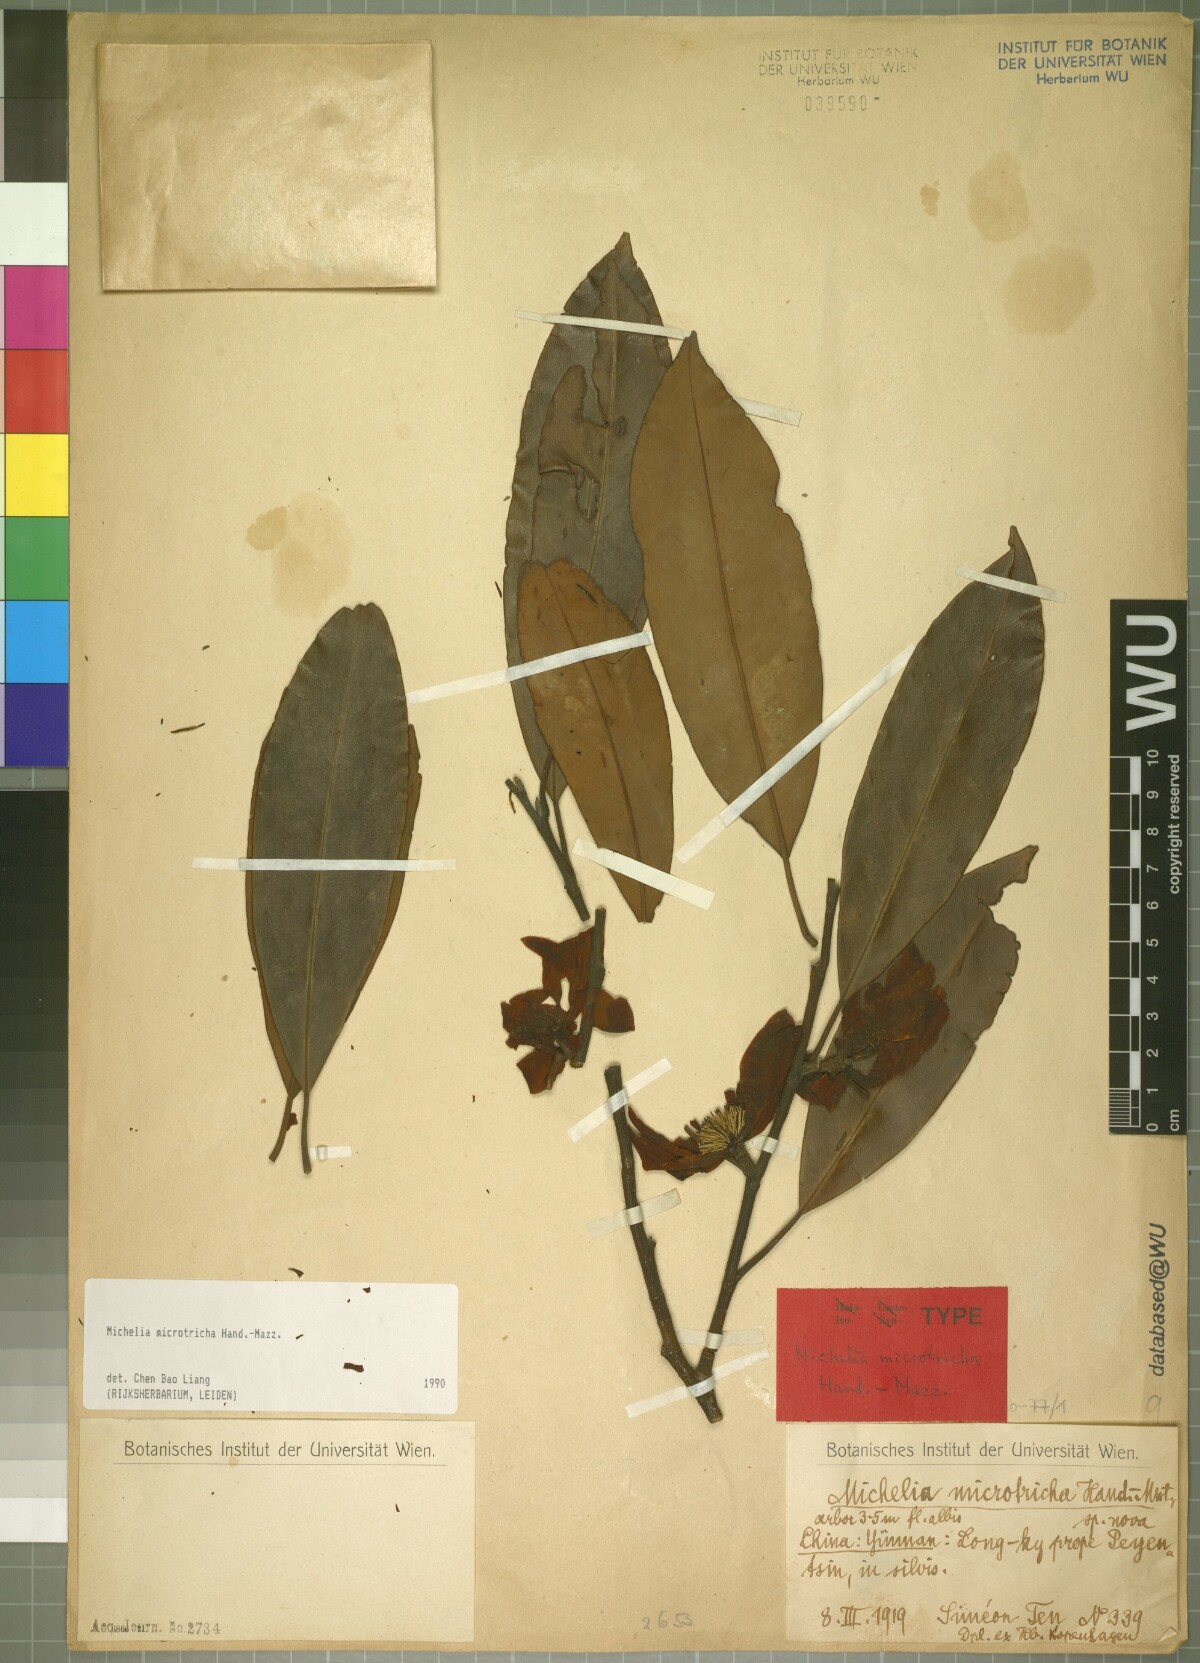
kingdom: Plantae
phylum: Tracheophyta
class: Magnoliopsida
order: Magnoliales
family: Magnoliaceae
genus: Magnolia
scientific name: Magnolia floribunda
